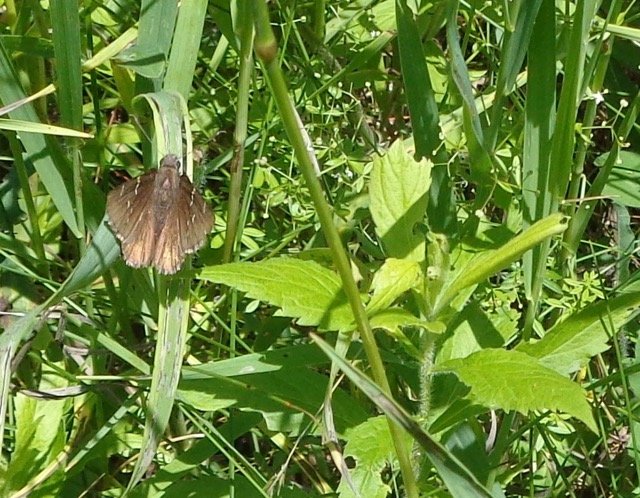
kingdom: Animalia
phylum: Arthropoda
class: Insecta
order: Lepidoptera
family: Hesperiidae
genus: Autochton
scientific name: Autochton
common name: Northern Cloudywing
